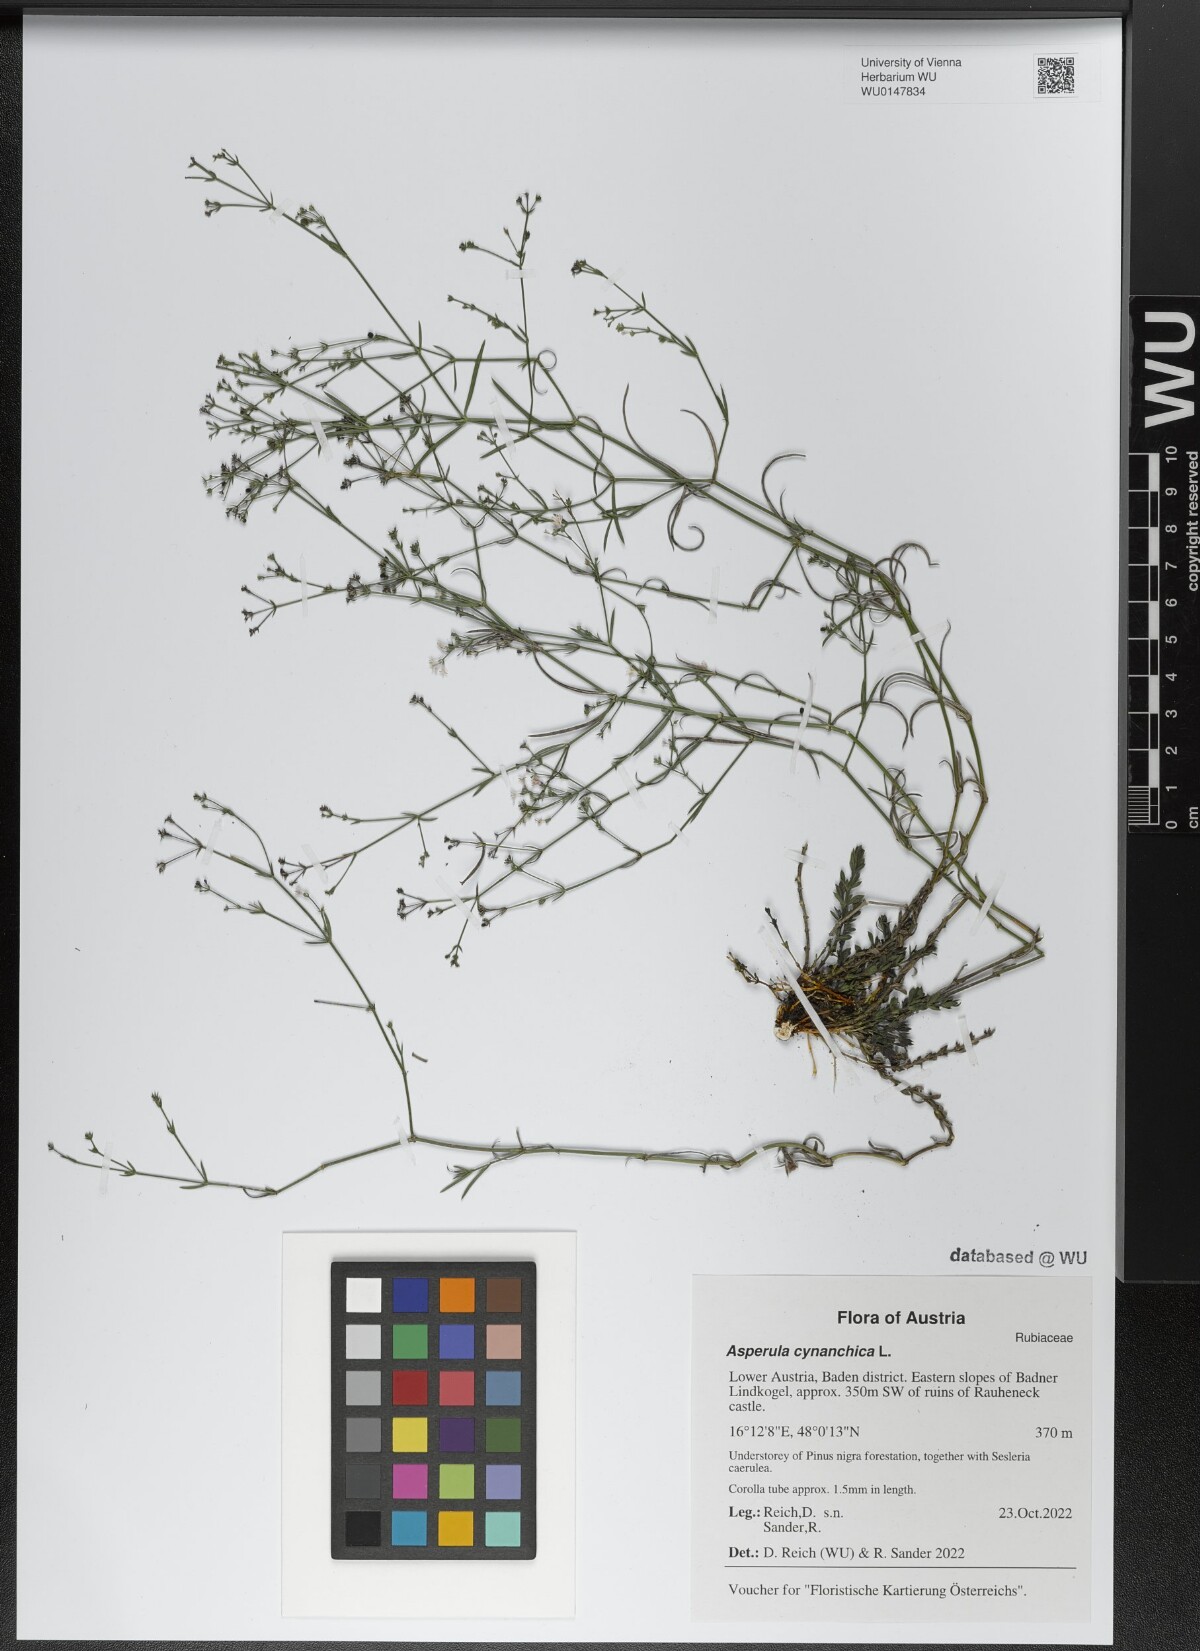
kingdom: Plantae
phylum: Tracheophyta
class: Magnoliopsida
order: Gentianales
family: Rubiaceae
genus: Cynanchica
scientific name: Cynanchica pyrenaica
